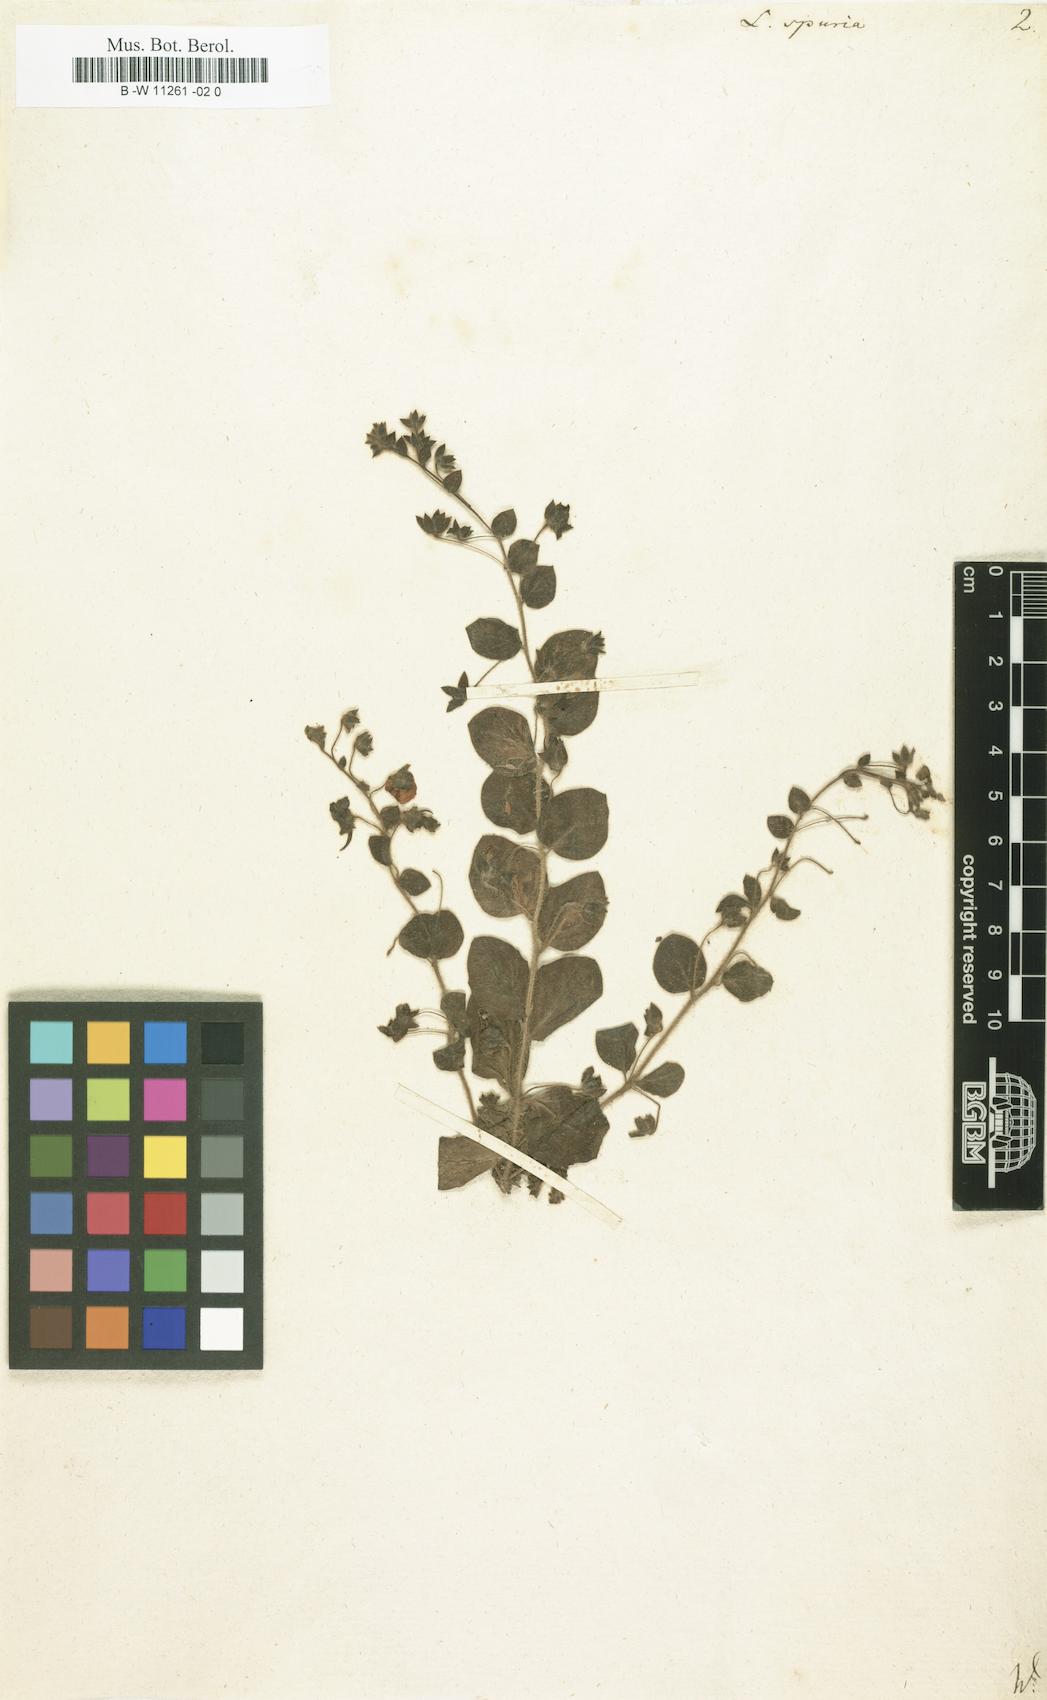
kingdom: Plantae
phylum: Tracheophyta
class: Magnoliopsida
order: Lamiales
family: Plantaginaceae
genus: Kickxia
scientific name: Kickxia spuria
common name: Round-leaved fluellen
